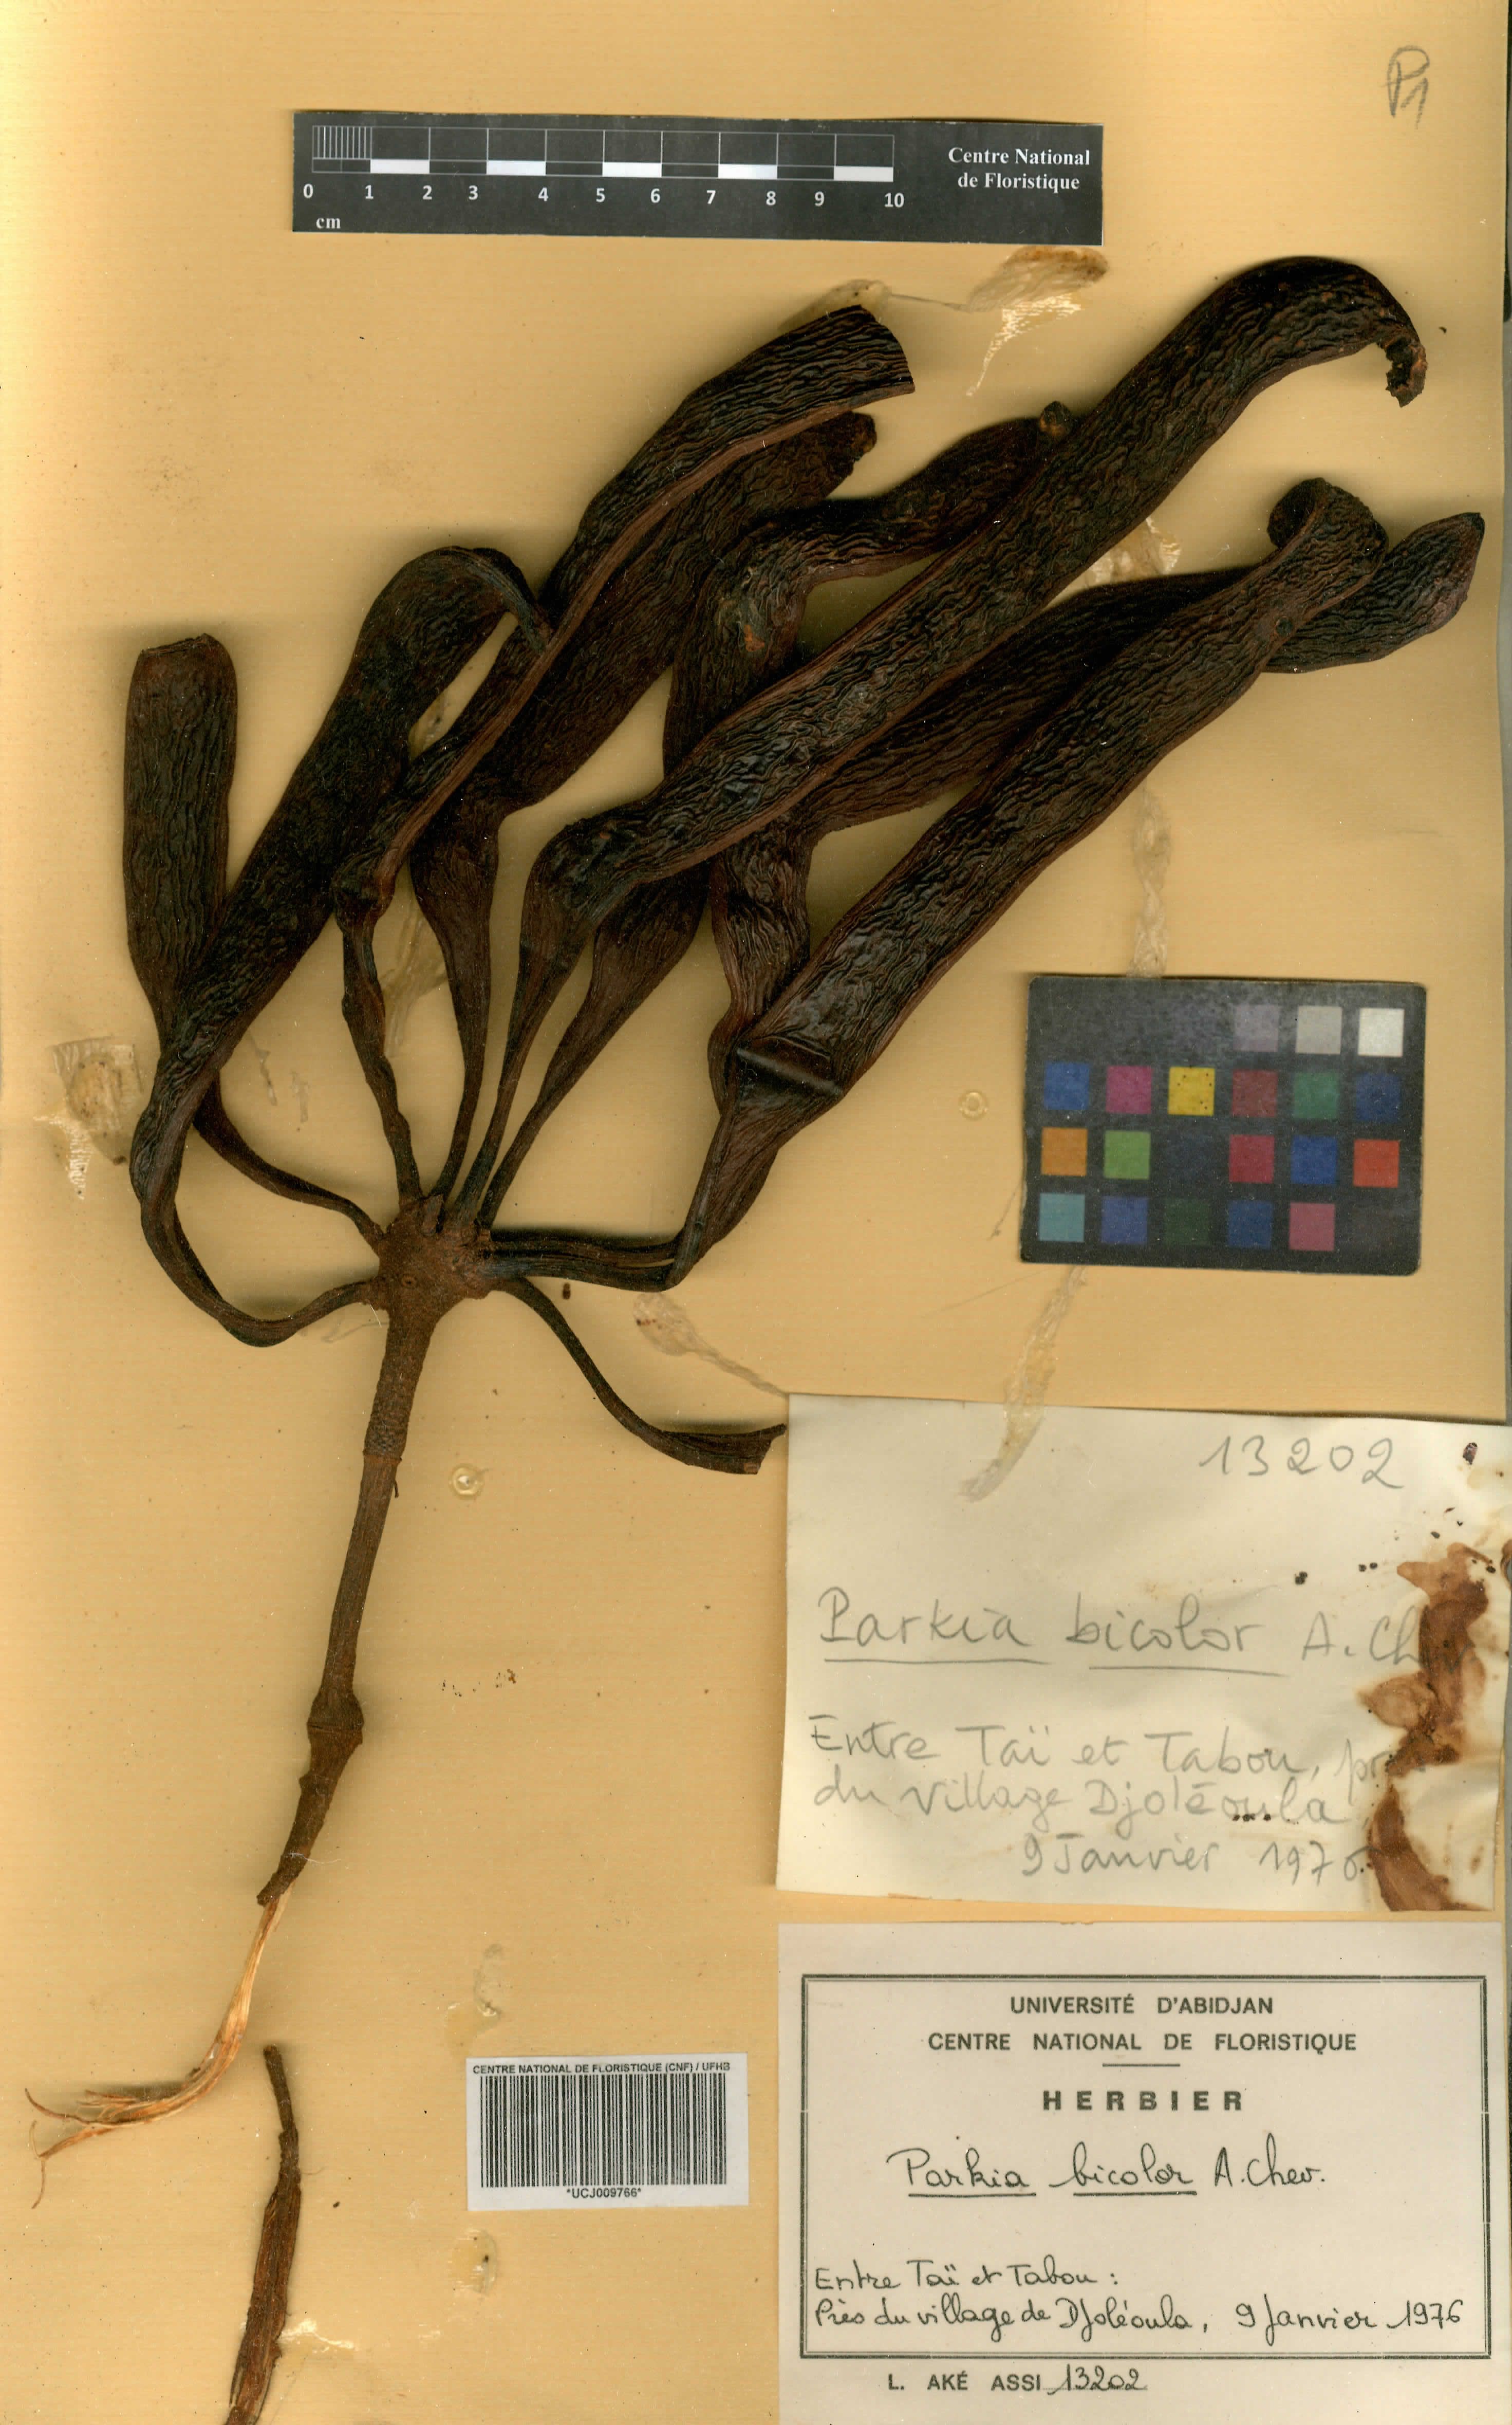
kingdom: Plantae
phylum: Tracheophyta
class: Magnoliopsida
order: Fabales
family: Fabaceae
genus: Parkia
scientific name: Parkia bicolor
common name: African locust-bean
